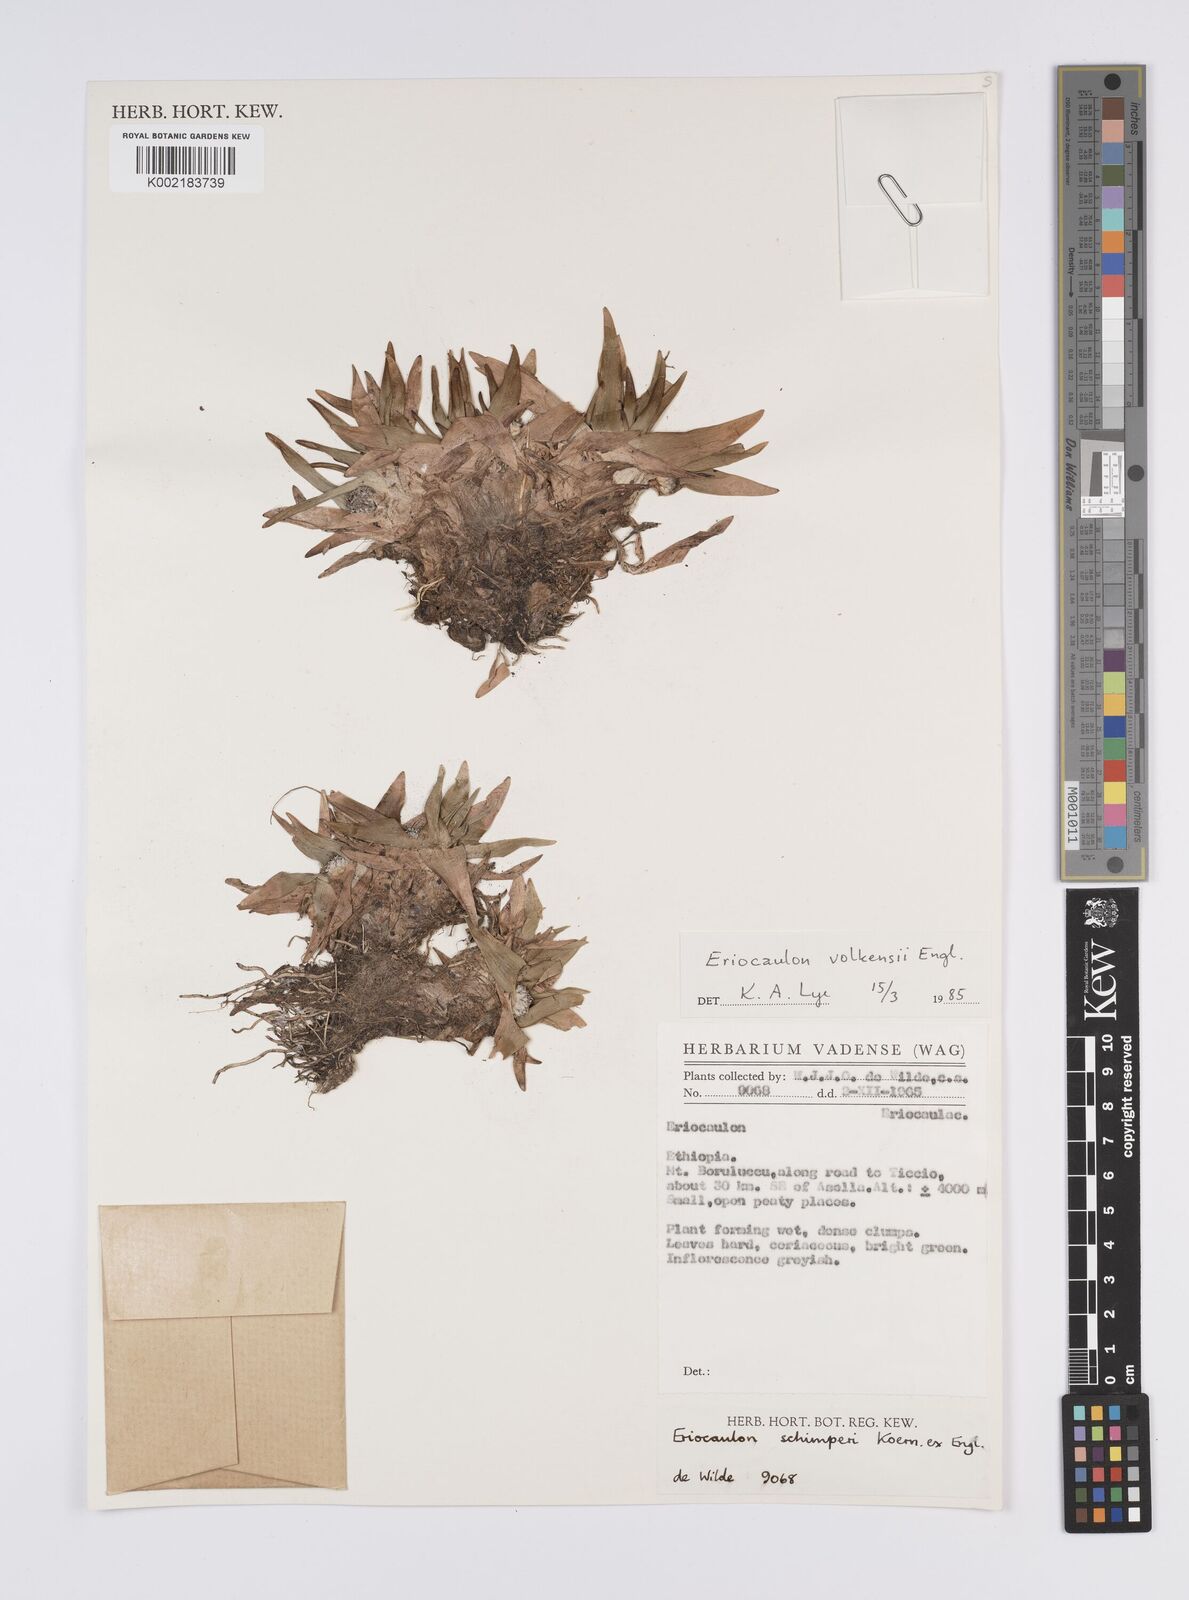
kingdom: Plantae
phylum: Tracheophyta
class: Liliopsida
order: Poales
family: Eriocaulaceae
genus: Eriocaulon
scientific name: Eriocaulon schimperi
